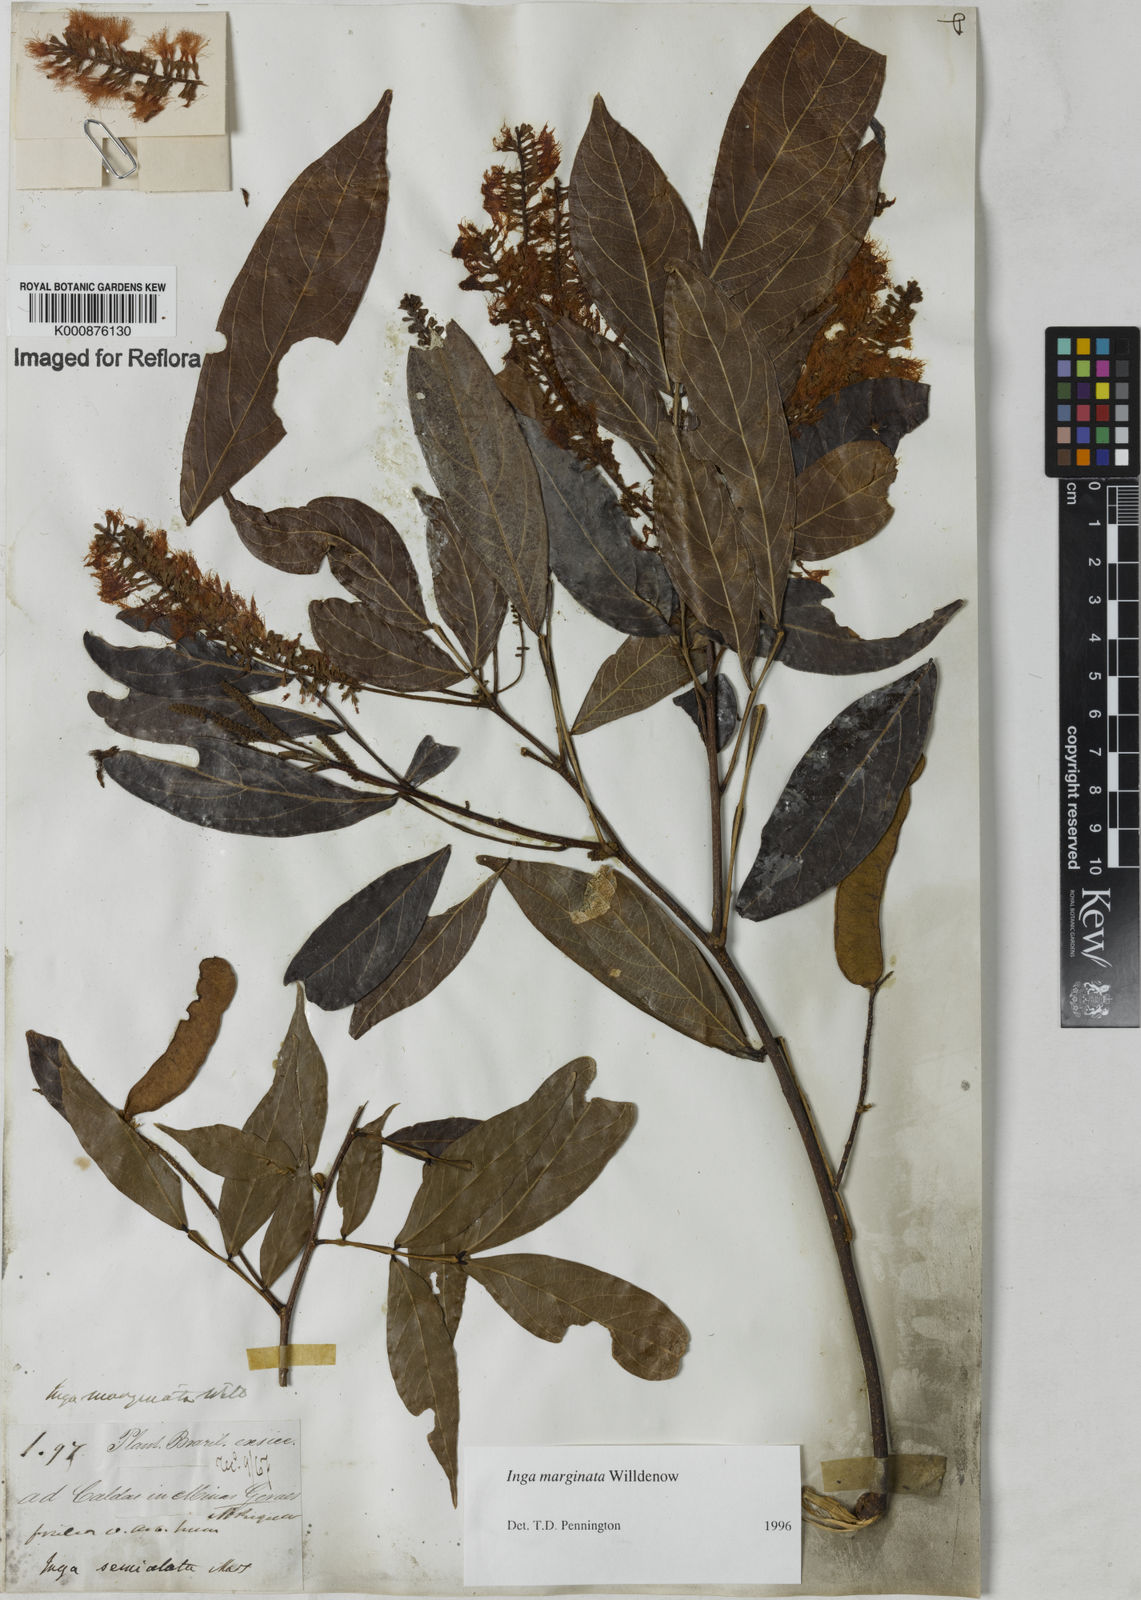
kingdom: Plantae
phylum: Tracheophyta
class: Magnoliopsida
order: Fabales
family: Fabaceae
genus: Inga
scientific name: Inga marginata
